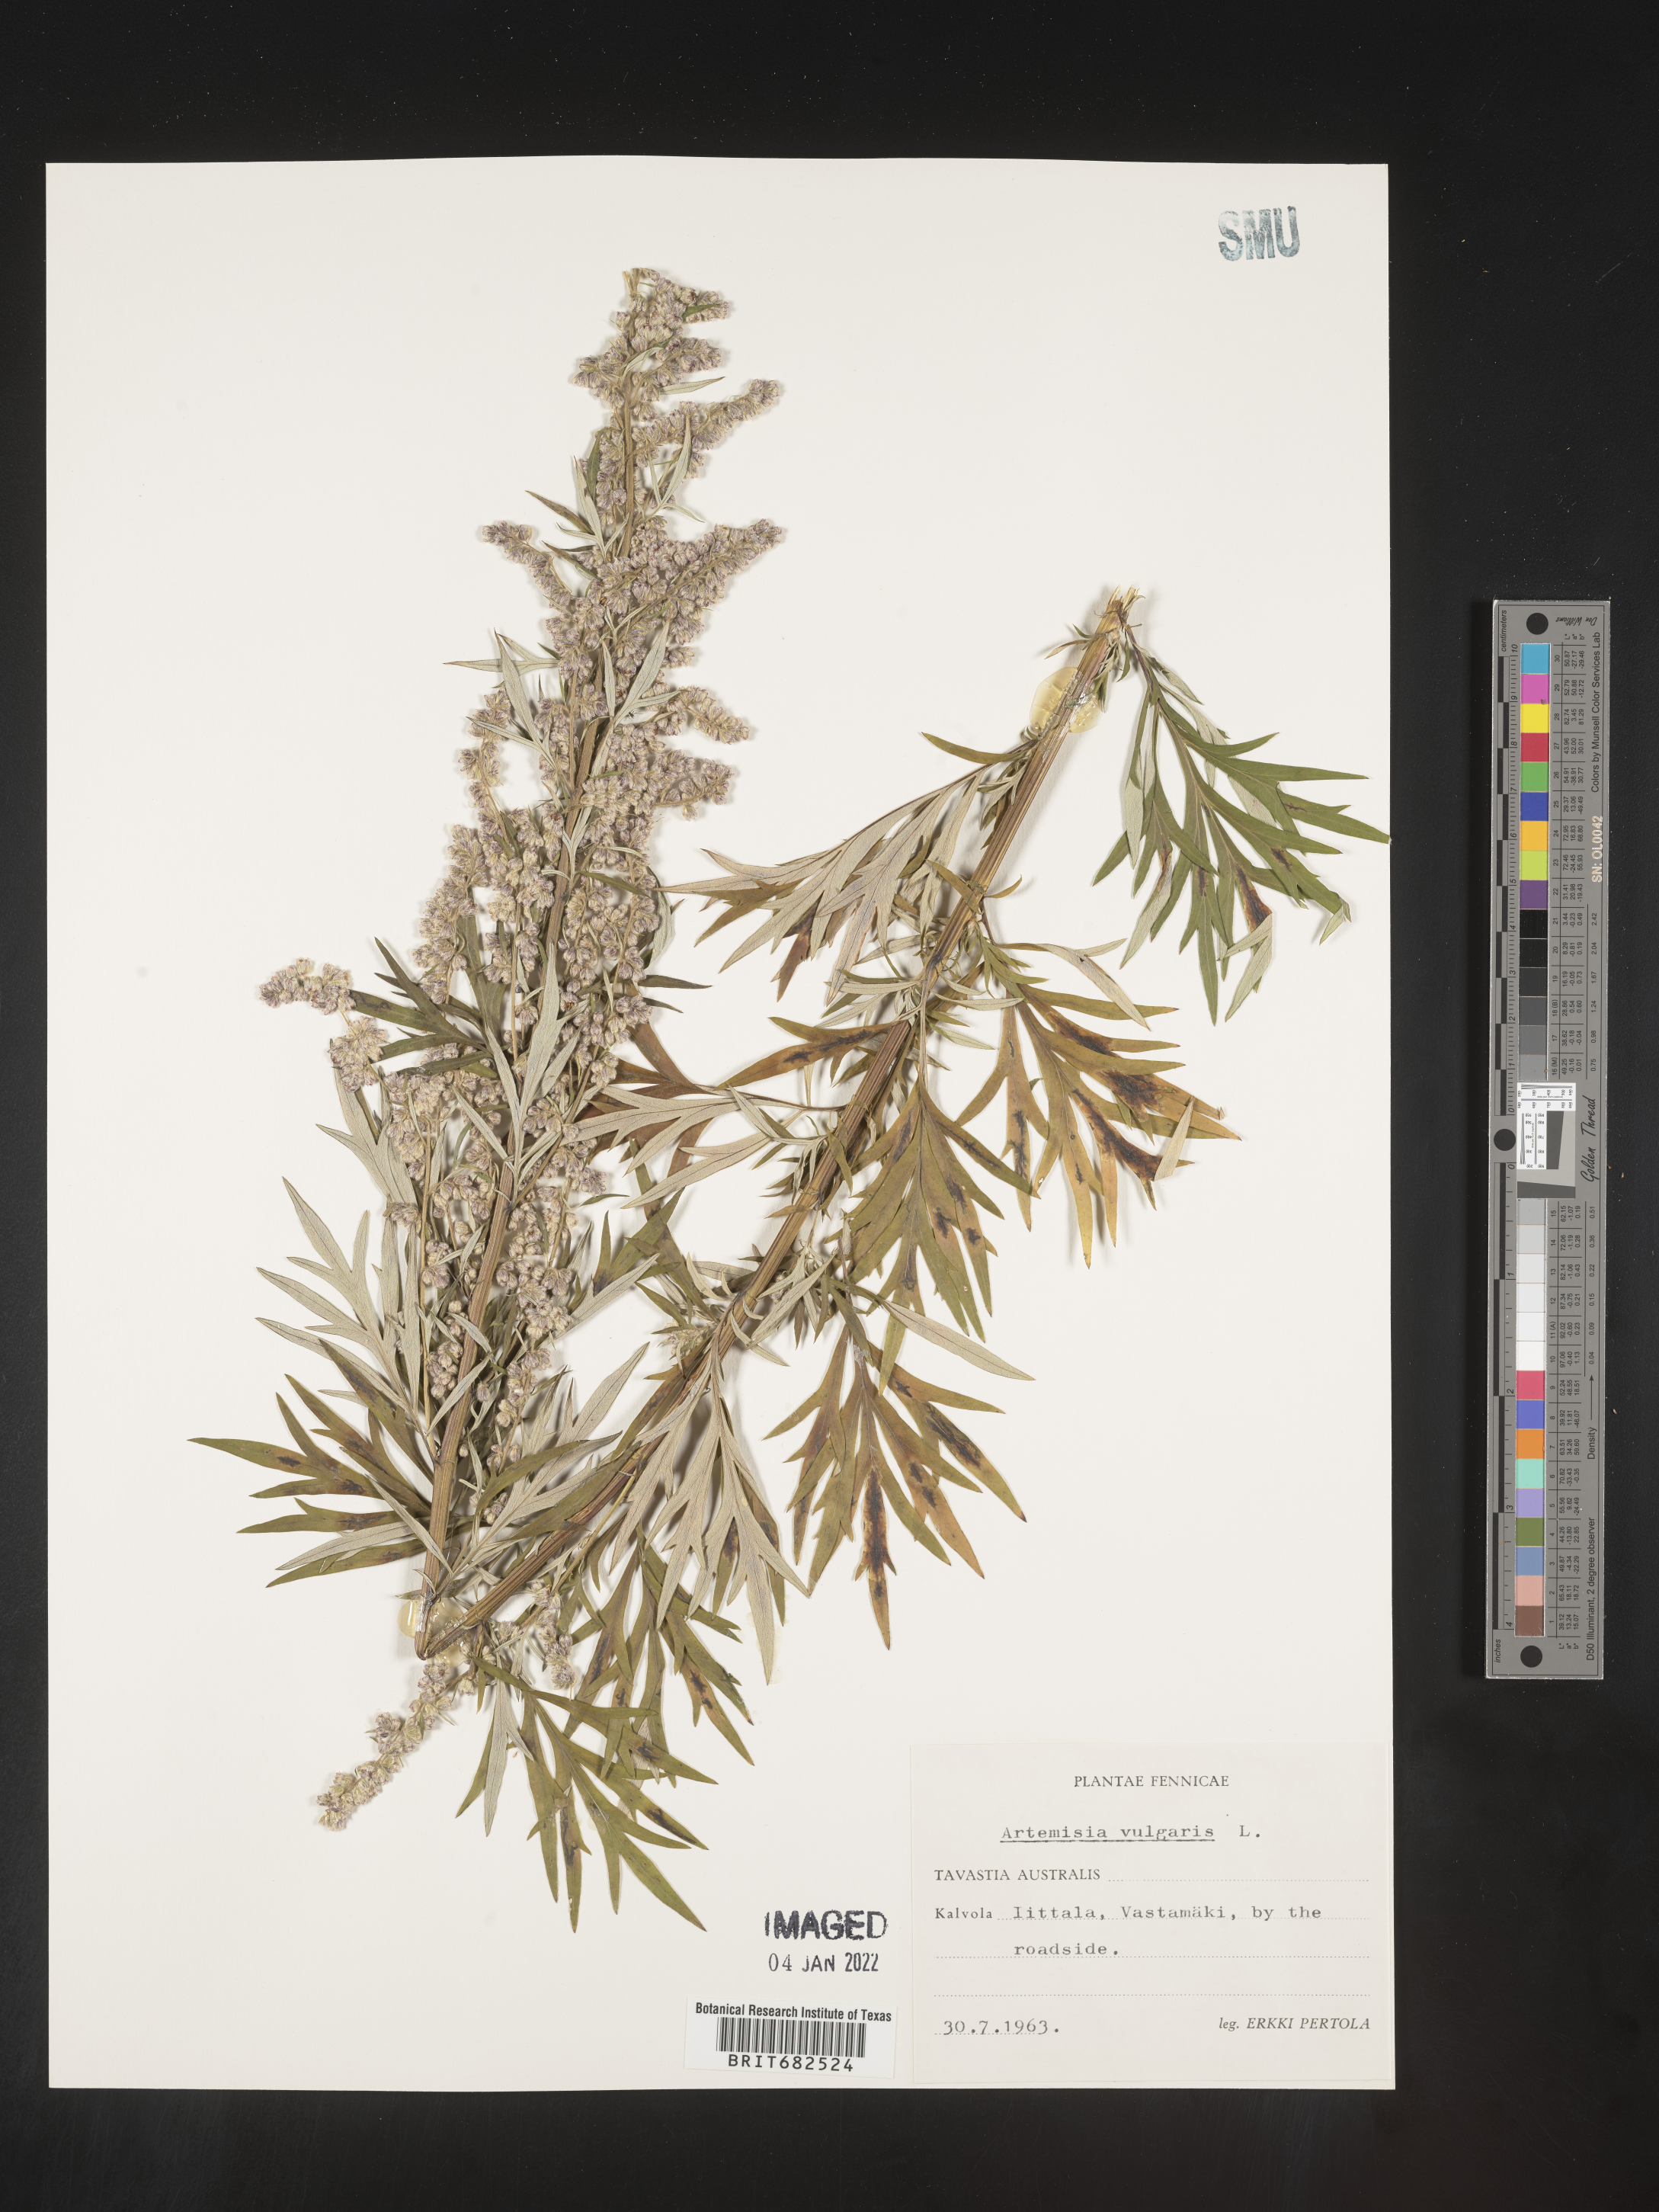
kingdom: Plantae
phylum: Tracheophyta
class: Magnoliopsida
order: Asterales
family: Asteraceae
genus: Artemisia
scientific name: Artemisia
